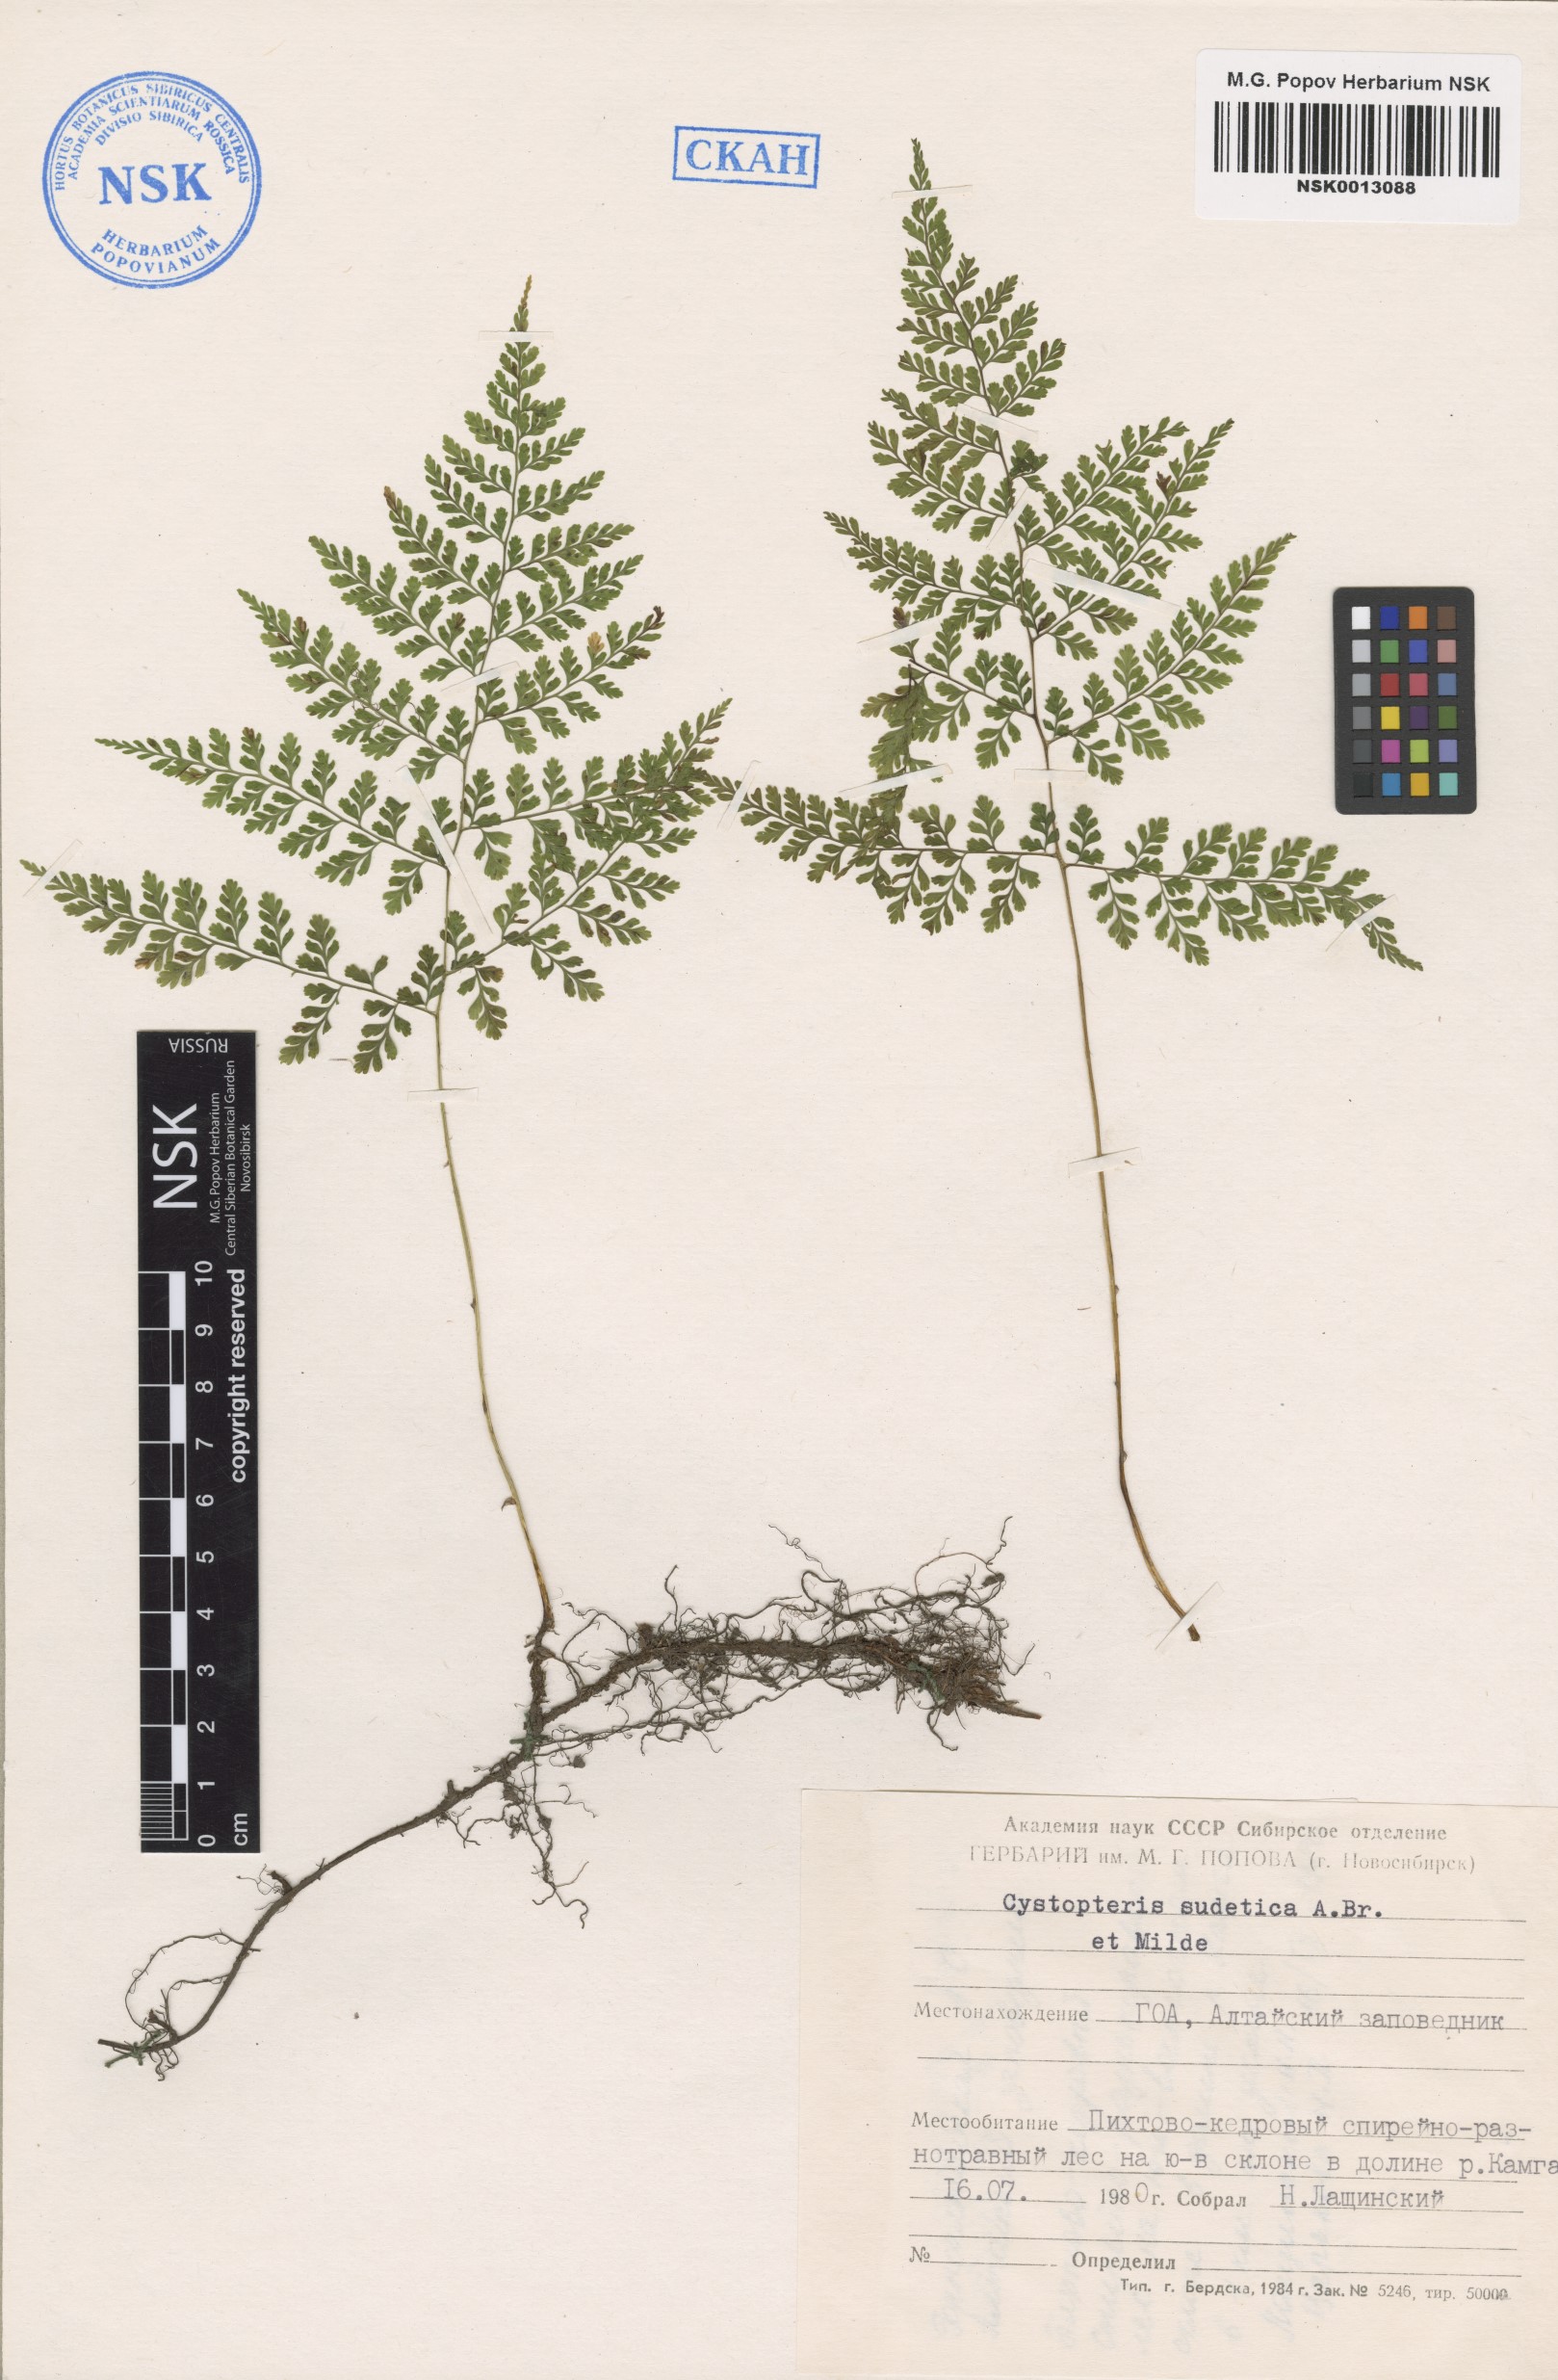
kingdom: Plantae
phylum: Tracheophyta
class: Polypodiopsida
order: Polypodiales
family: Cystopteridaceae
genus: Cystopteris
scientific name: Cystopteris sudetica
